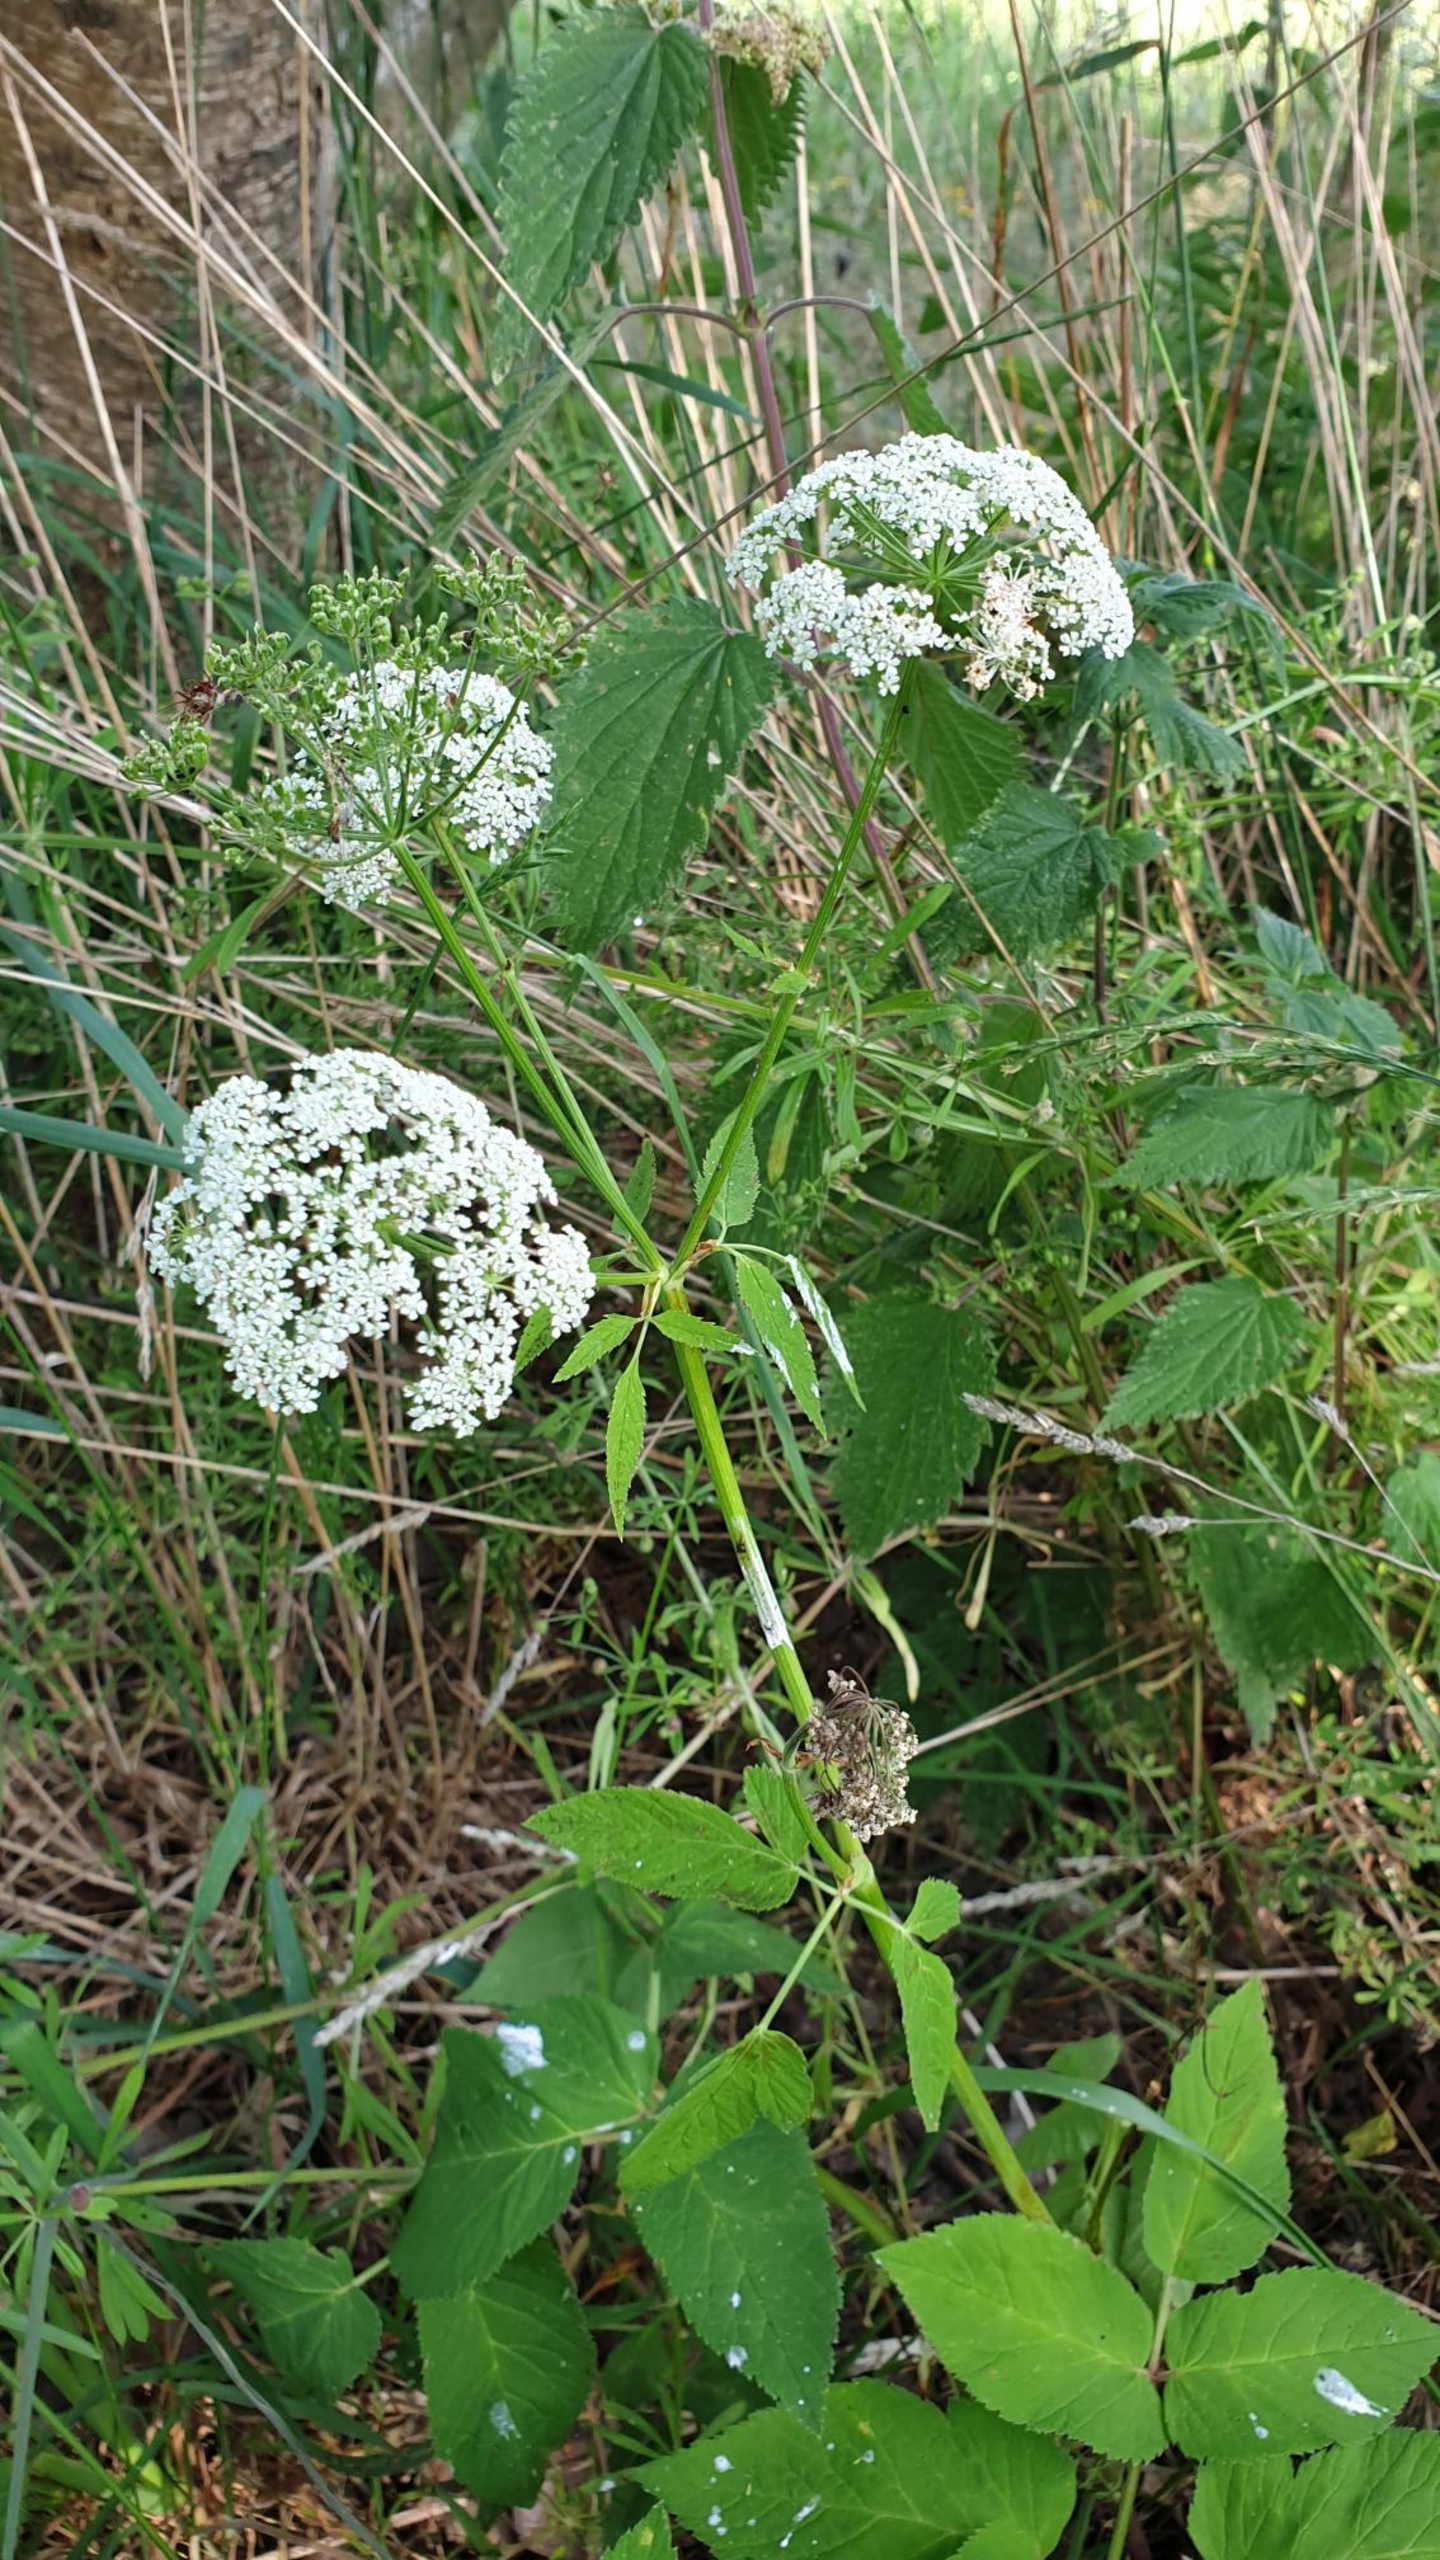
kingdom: Plantae
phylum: Tracheophyta
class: Magnoliopsida
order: Apiales
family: Apiaceae
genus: Aegopodium
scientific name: Aegopodium podagraria
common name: Skvalderkål
